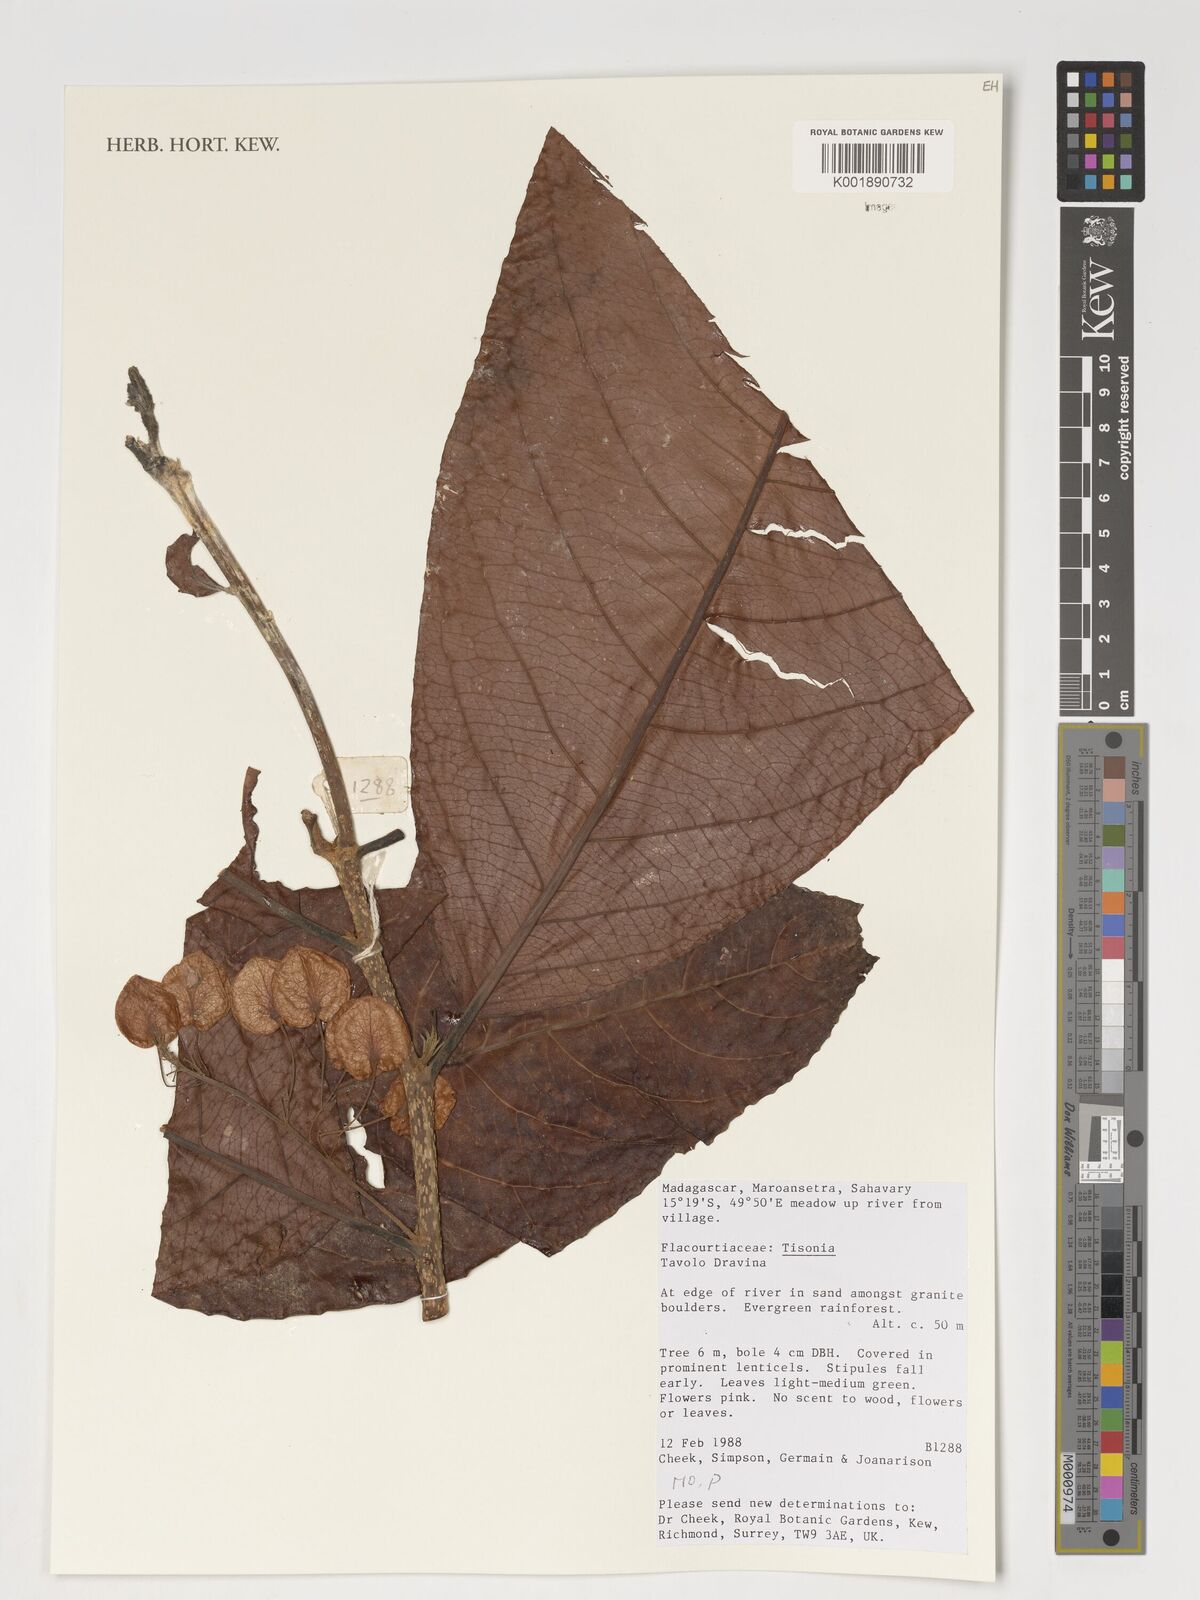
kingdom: Plantae
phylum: Tracheophyta
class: Magnoliopsida
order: Malpighiales
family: Salicaceae
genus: Tisonia
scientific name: Tisonia
